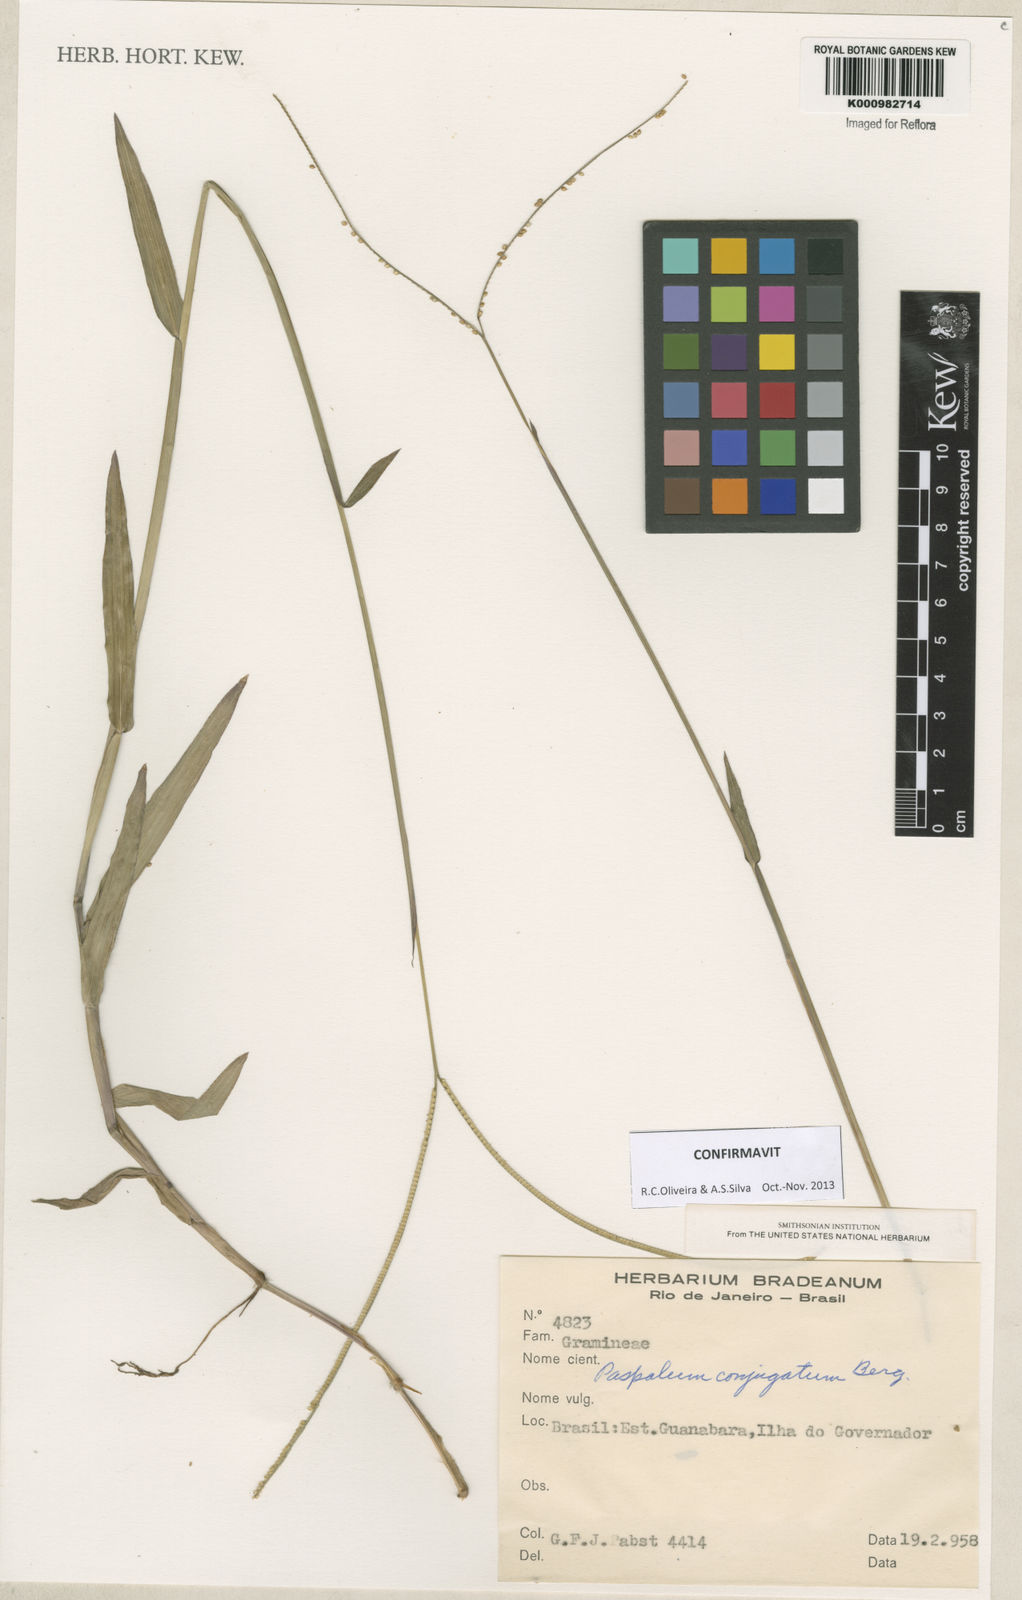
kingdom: Plantae
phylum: Tracheophyta
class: Liliopsida
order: Poales
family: Poaceae
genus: Paspalum
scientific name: Paspalum conjugatum
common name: Hilograss
